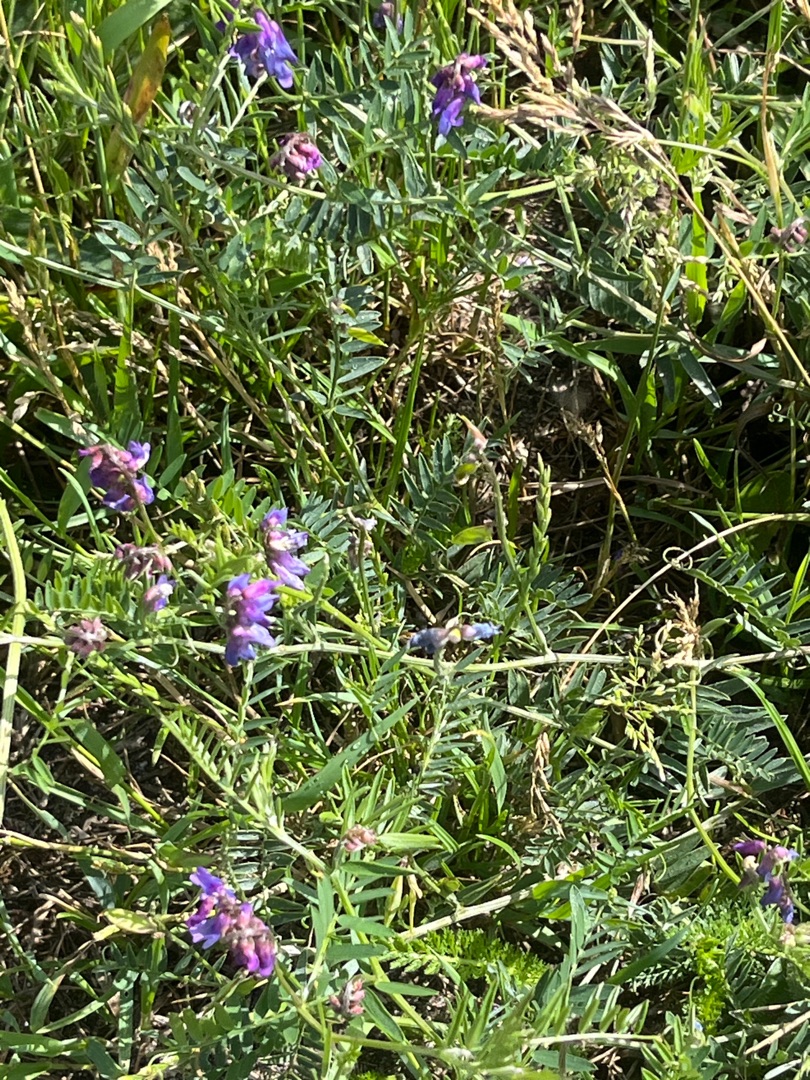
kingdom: Plantae
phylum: Tracheophyta
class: Magnoliopsida
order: Fabales
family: Fabaceae
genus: Vicia
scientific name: Vicia cracca
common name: Muse-vikke
